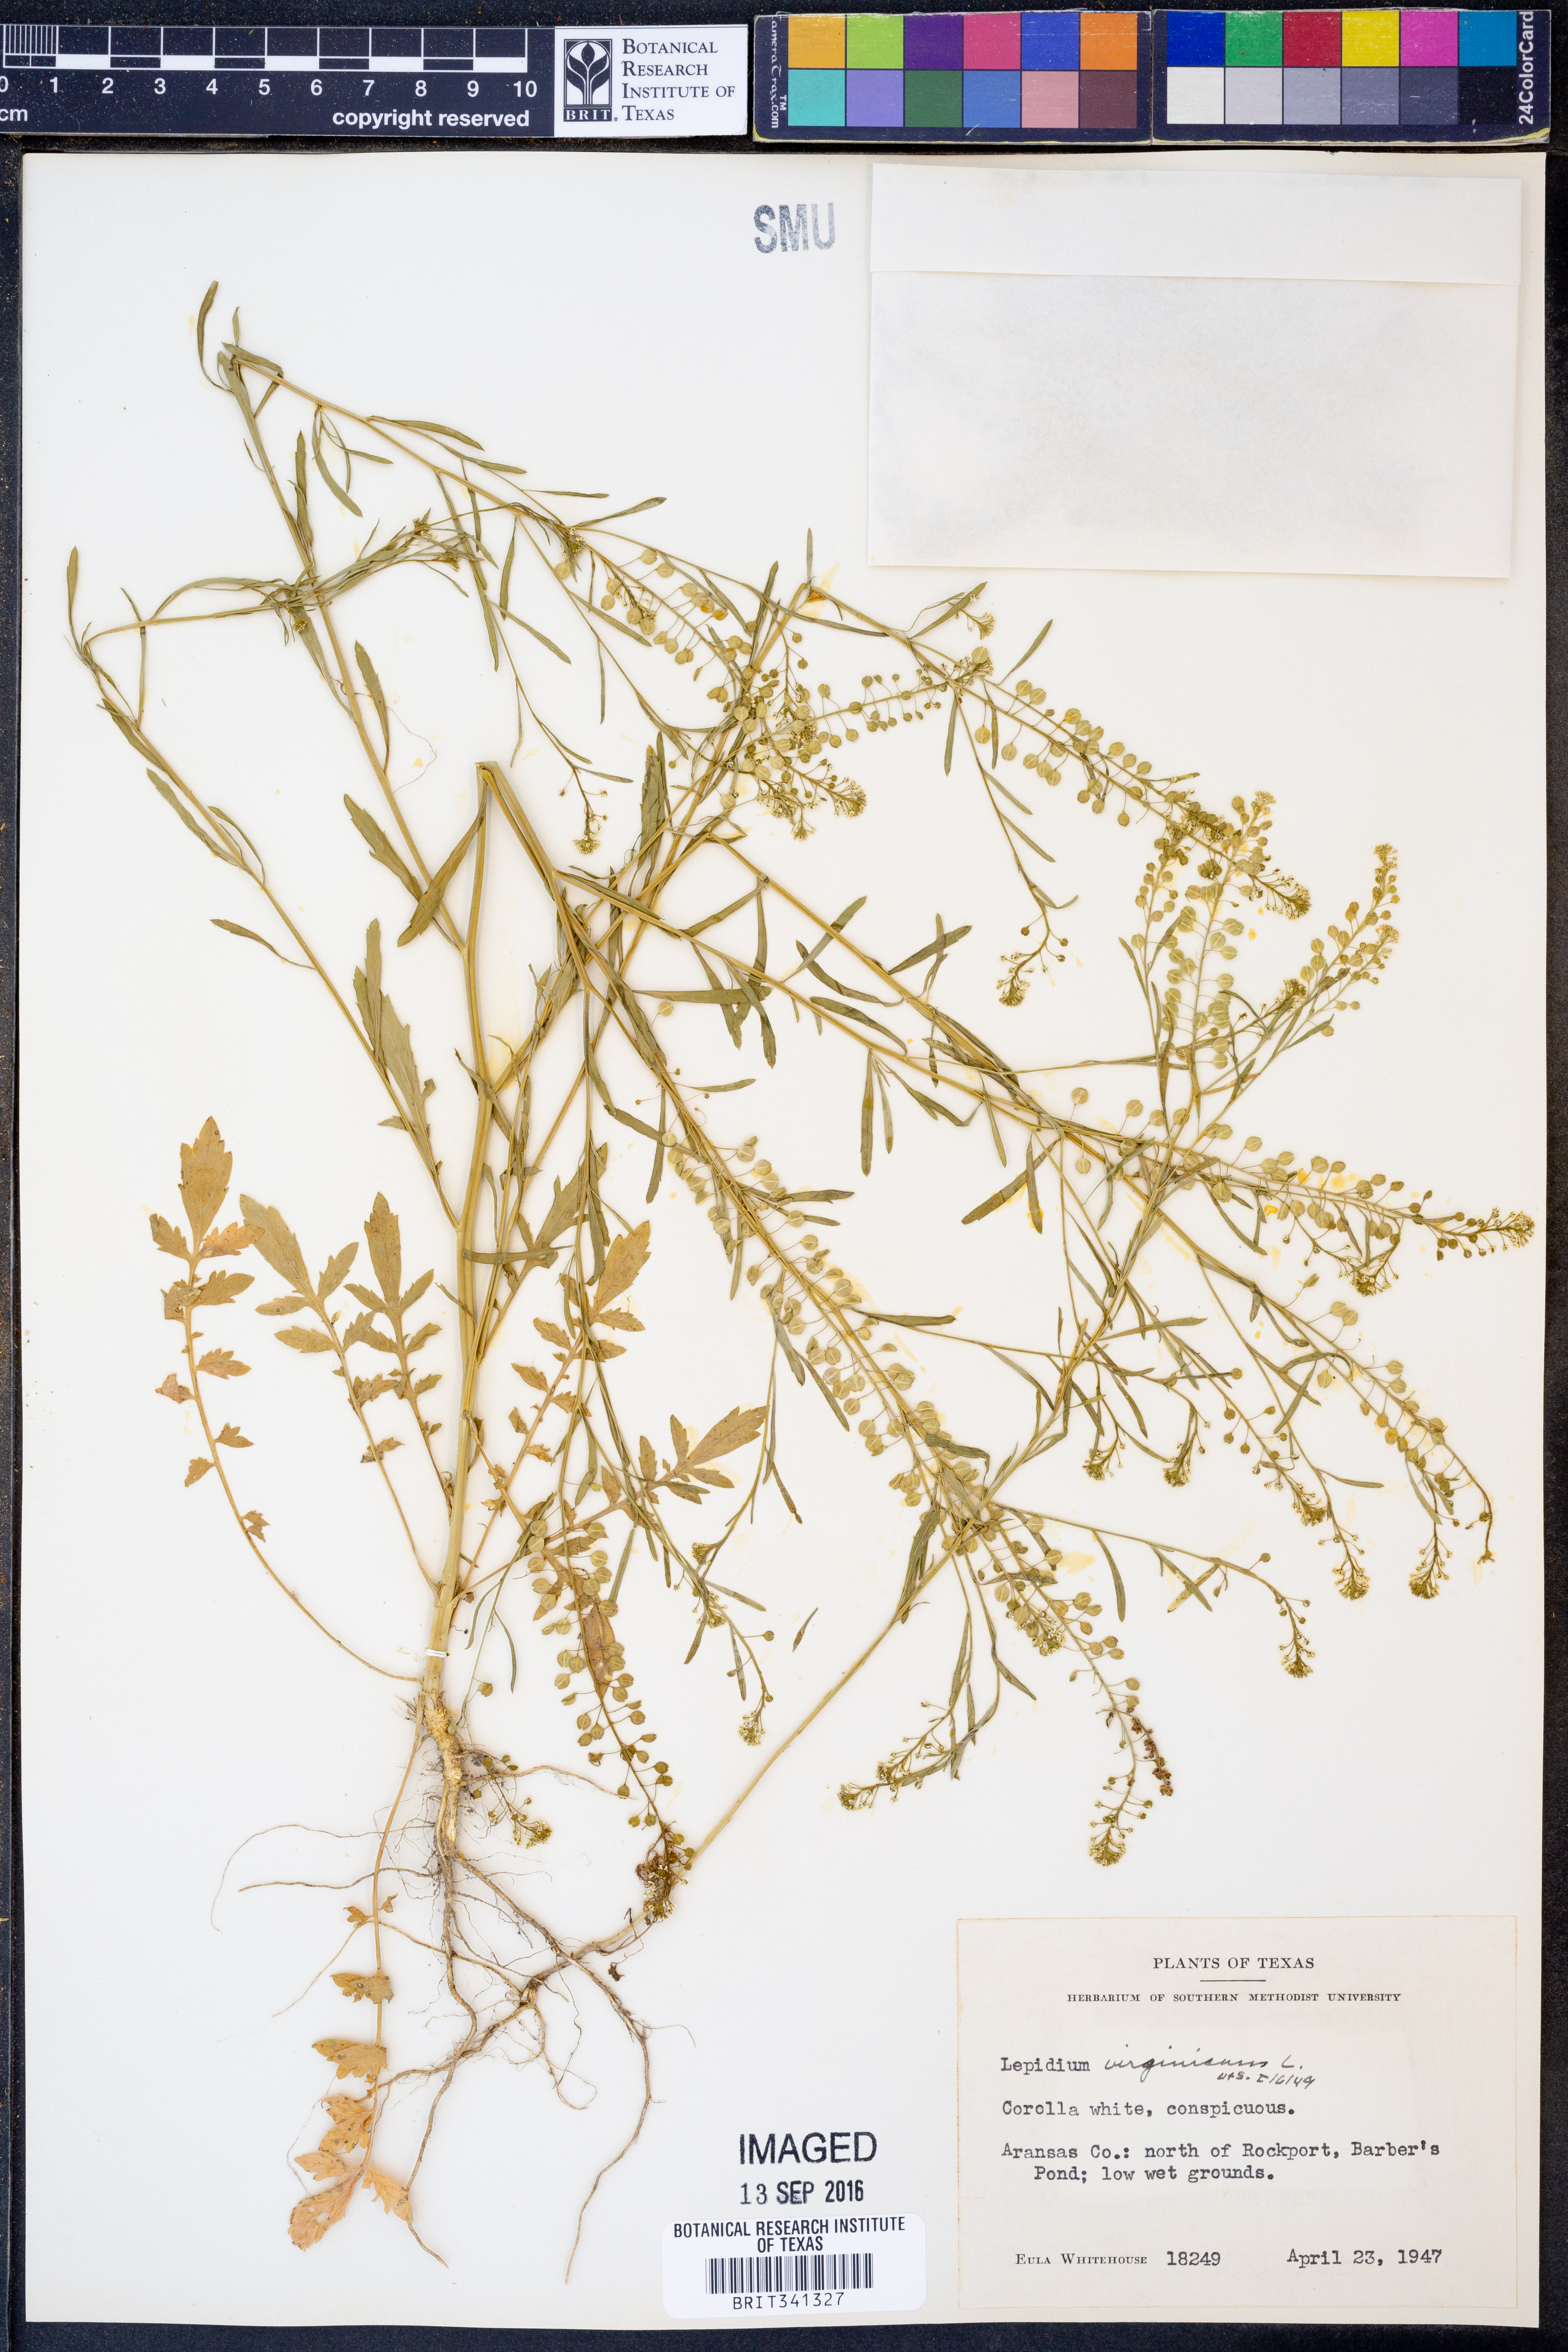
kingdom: Plantae
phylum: Tracheophyta
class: Magnoliopsida
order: Brassicales
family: Brassicaceae
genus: Lepidium
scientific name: Lepidium virginicum
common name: Least pepperwort
